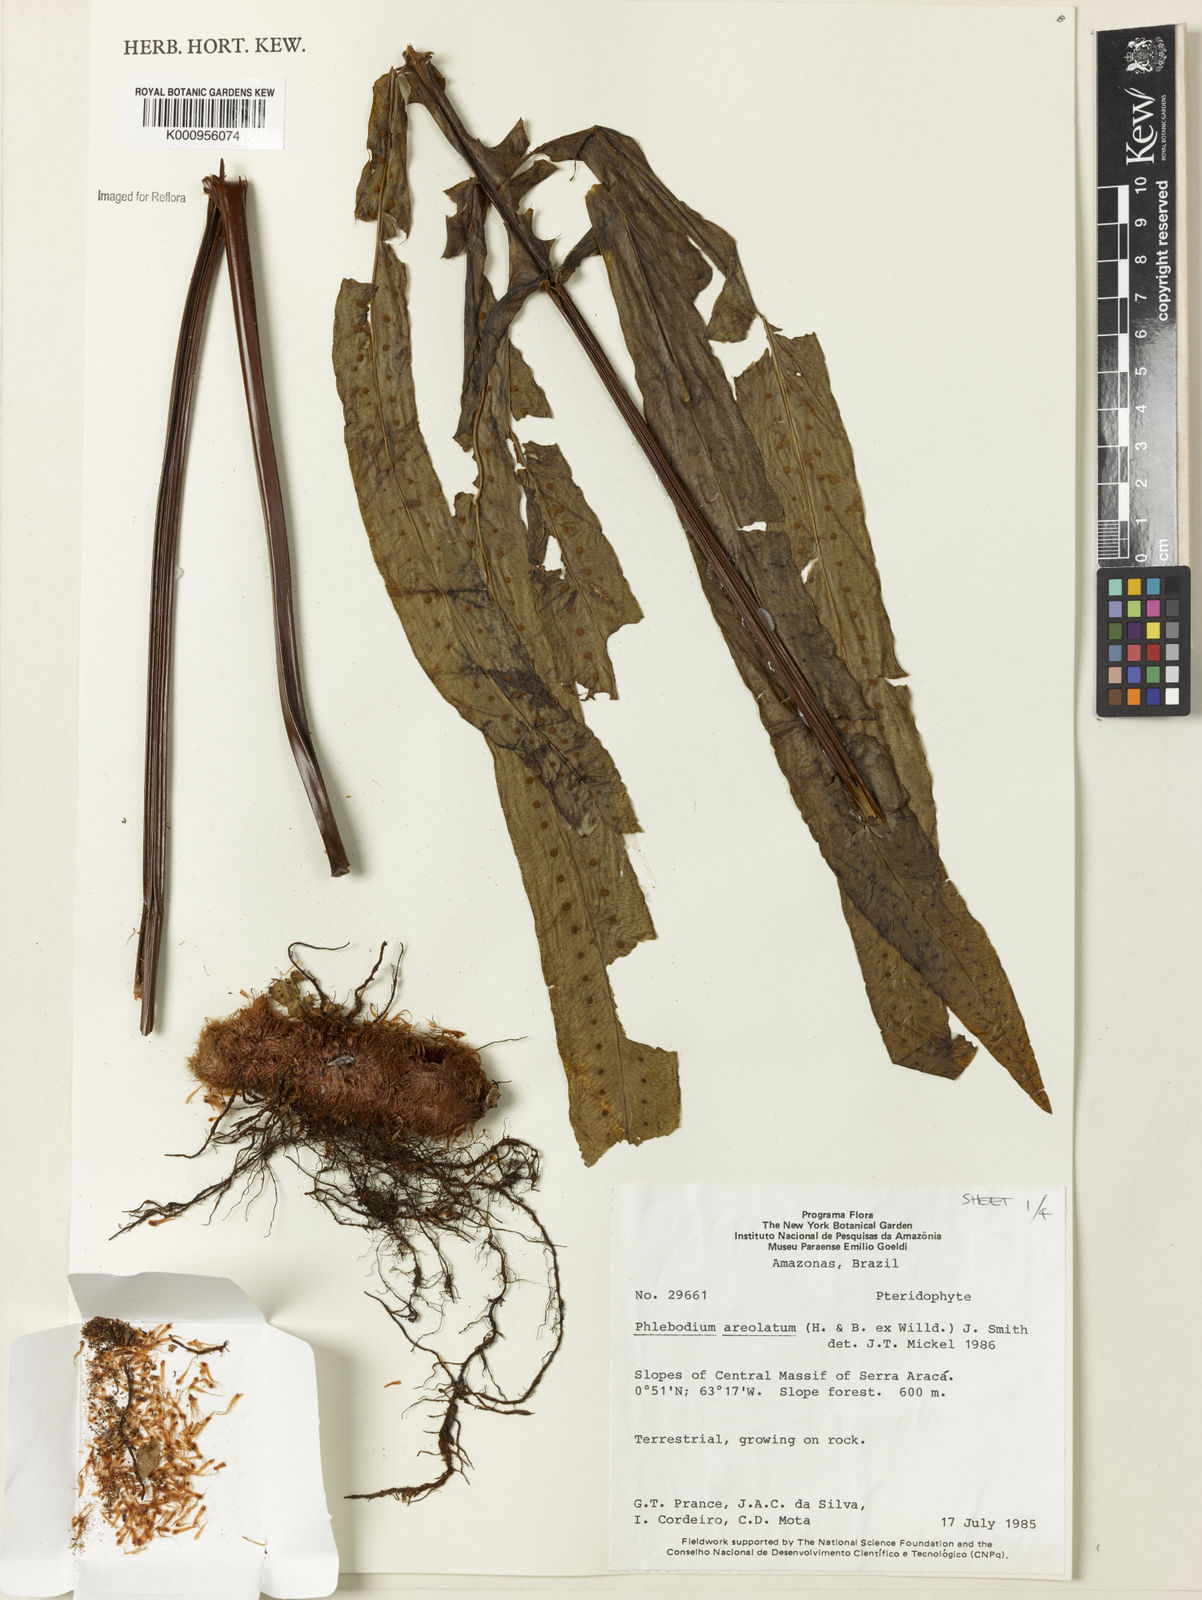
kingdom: Plantae
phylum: Tracheophyta
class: Polypodiopsida
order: Polypodiales
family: Polypodiaceae
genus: Phlebodium
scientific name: Phlebodium aureum
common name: Gold-foot fern
